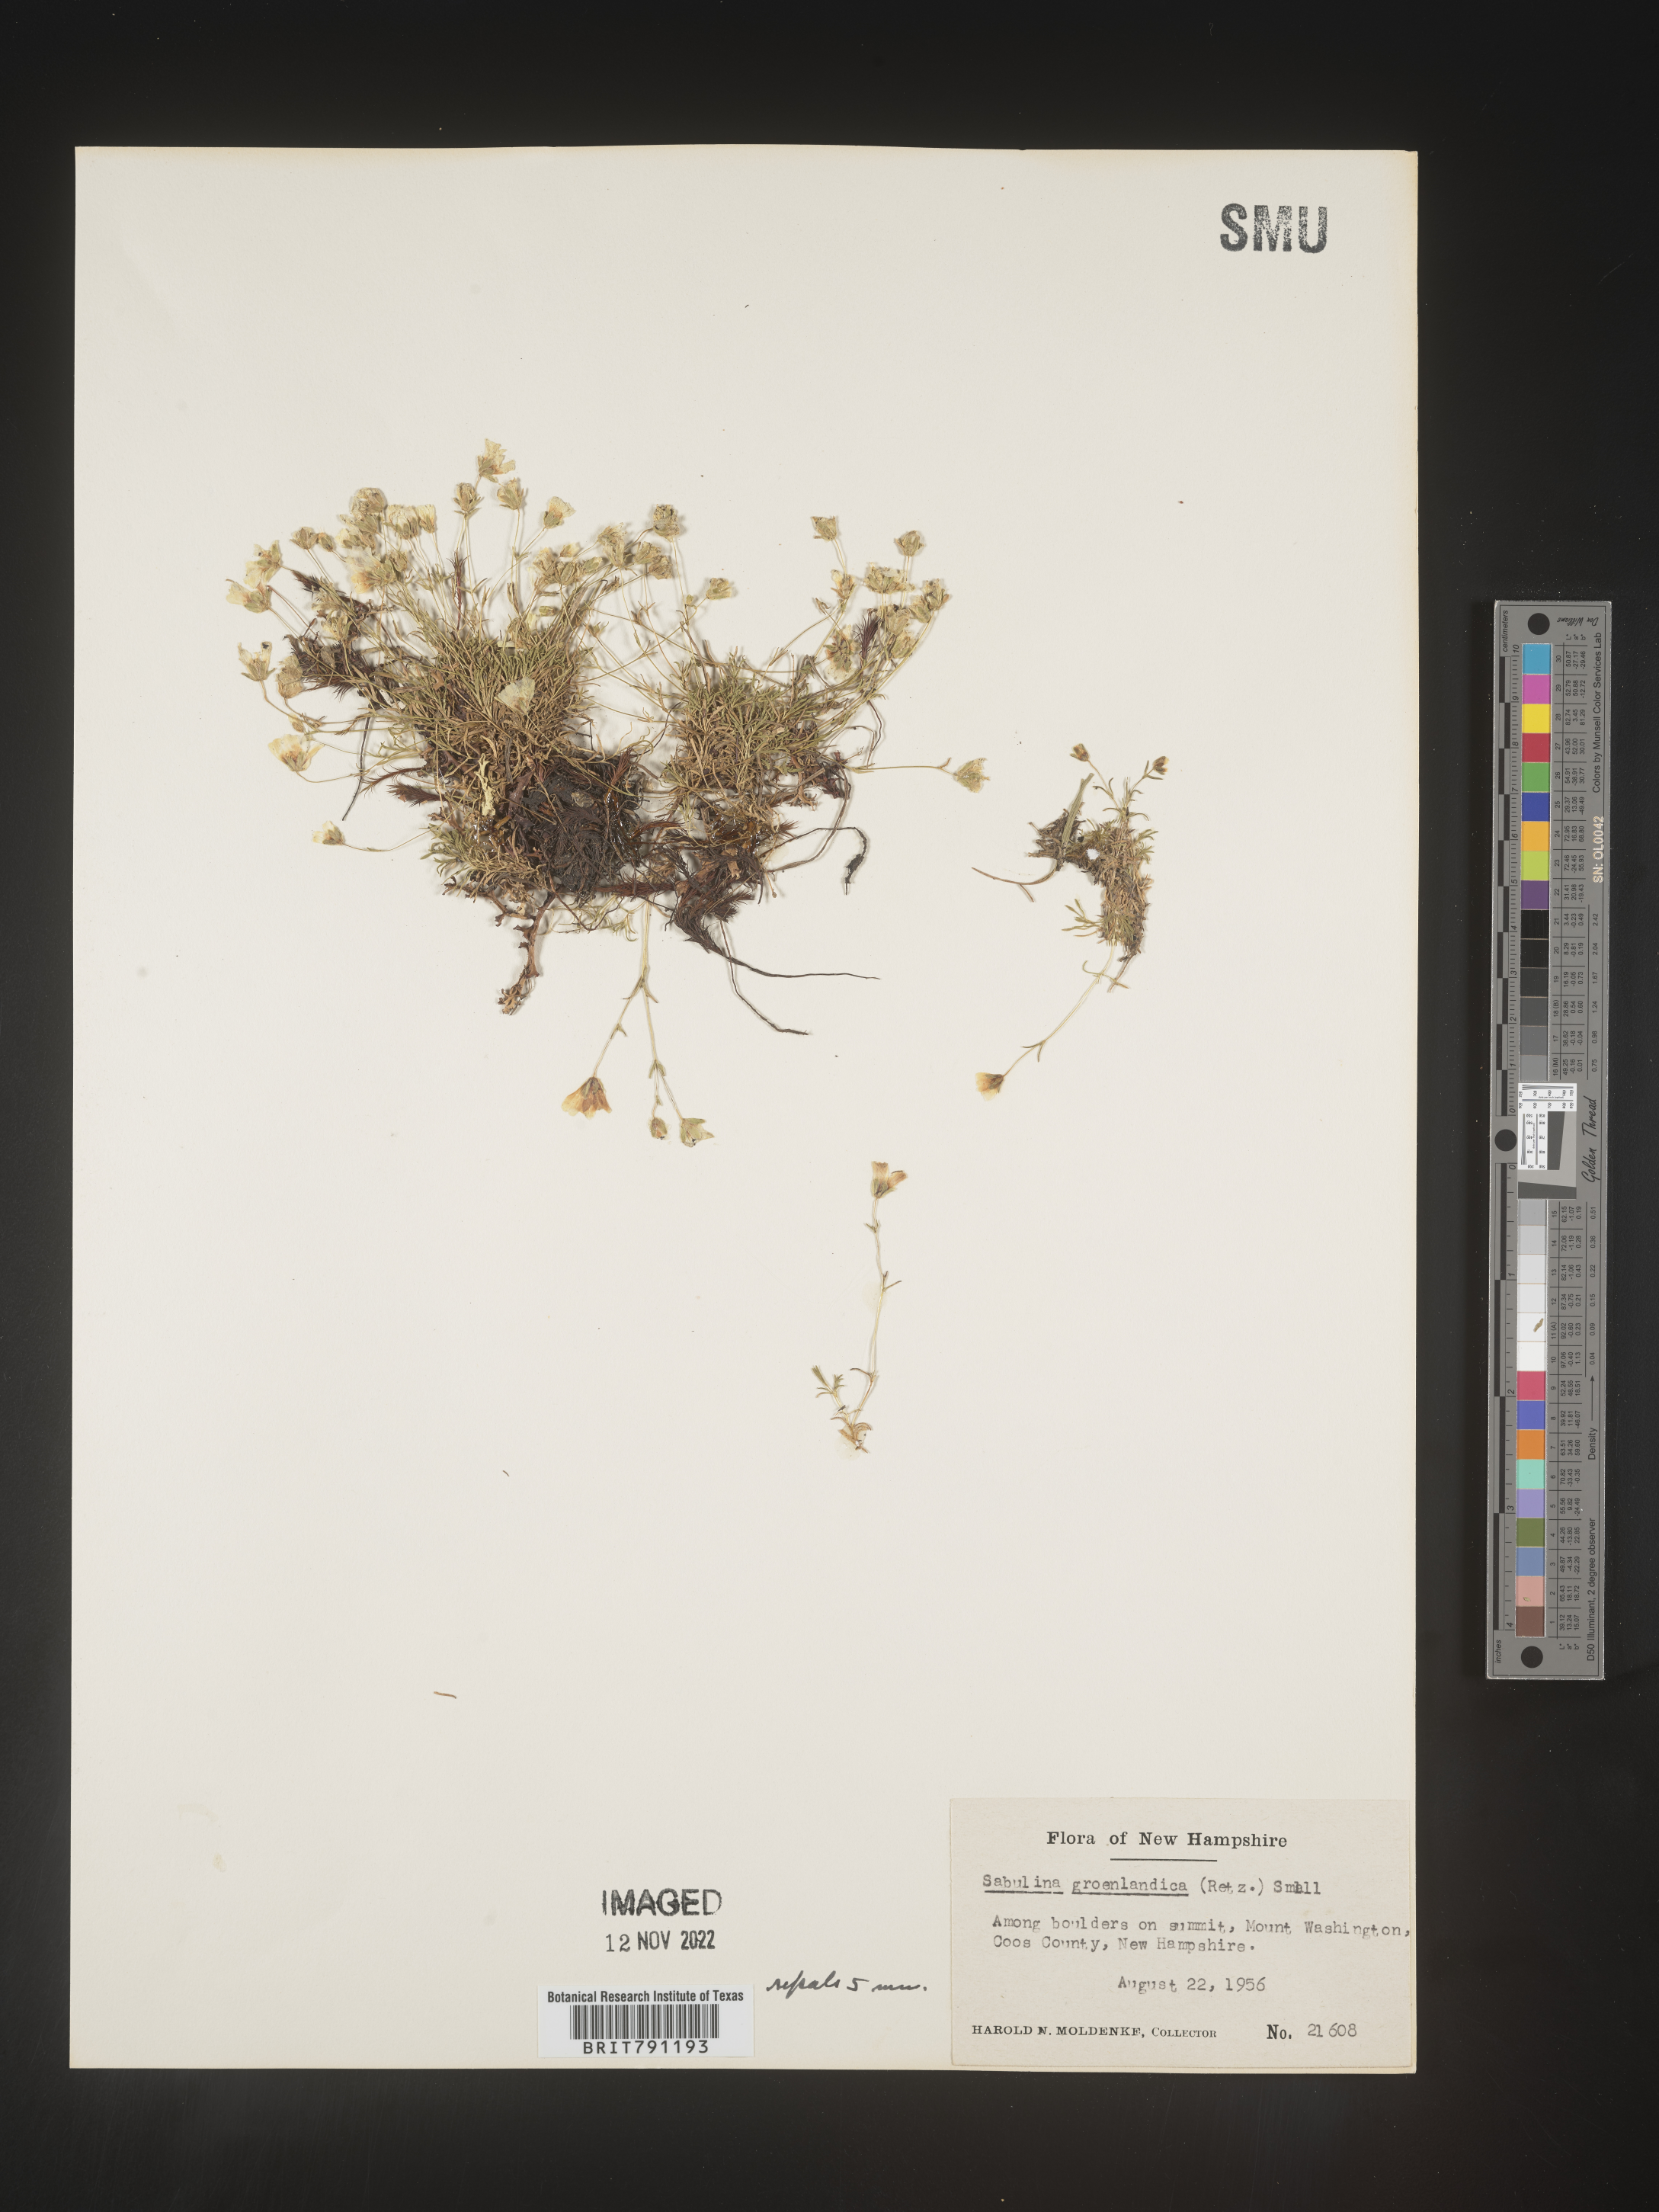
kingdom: Plantae
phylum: Tracheophyta
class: Magnoliopsida
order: Caryophyllales
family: Caryophyllaceae
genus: Geocarpon
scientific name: Geocarpon groenlandicum
